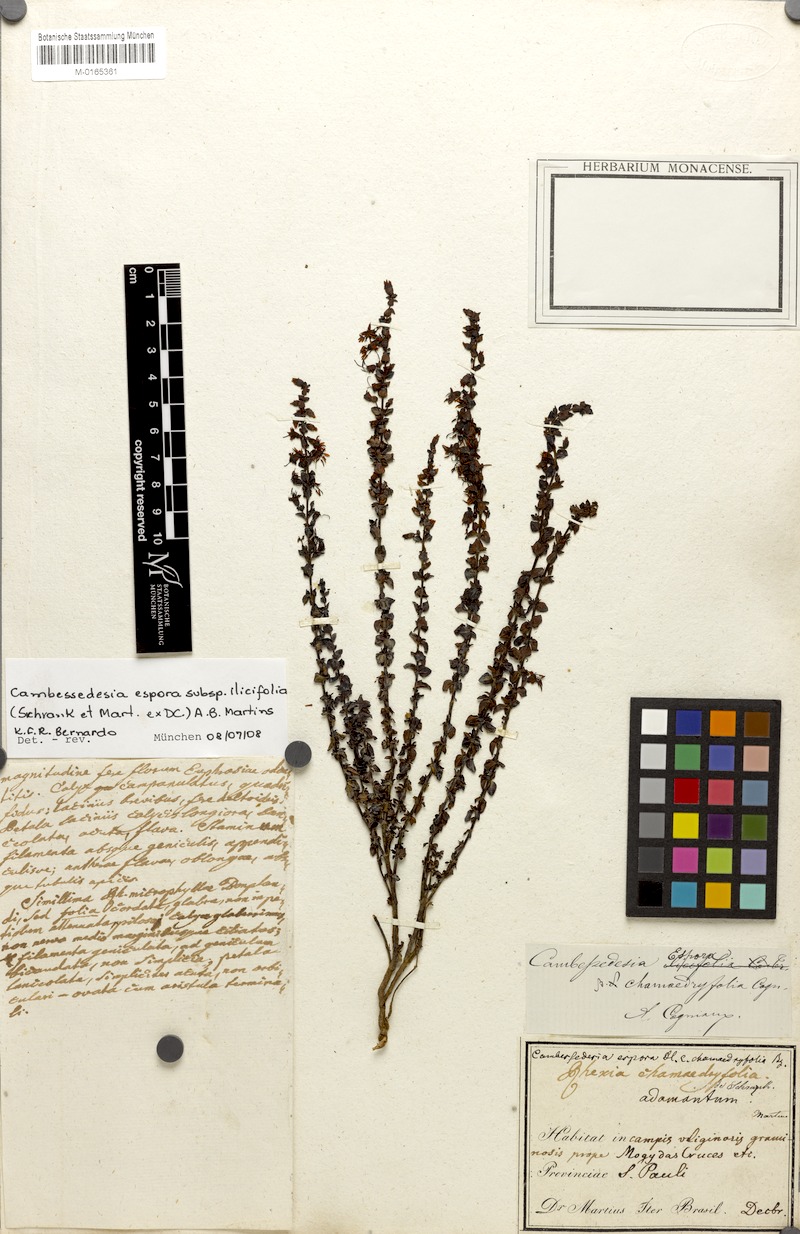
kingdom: Plantae
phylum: Tracheophyta
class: Magnoliopsida
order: Myrtales
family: Melastomataceae
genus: Cambessedesia
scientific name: Cambessedesia espora
